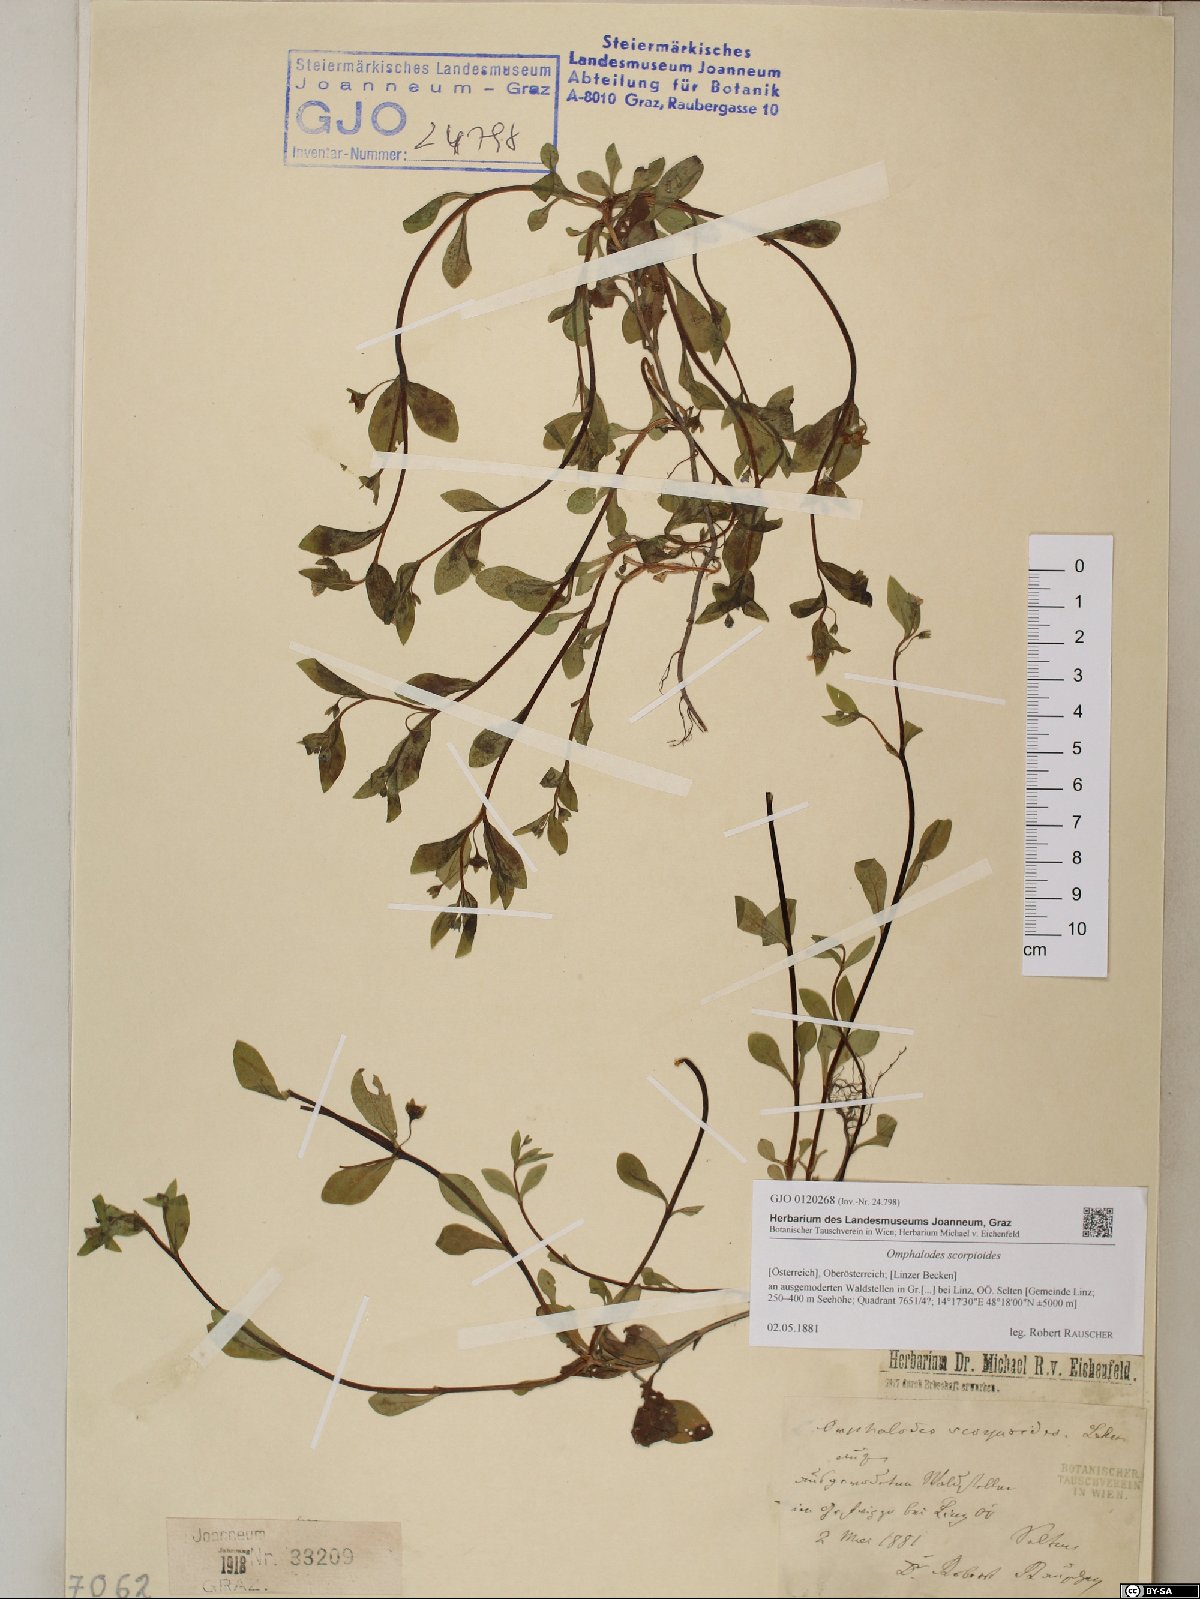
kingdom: Plantae
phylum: Tracheophyta
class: Magnoliopsida
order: Boraginales
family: Boraginaceae
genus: Memoremea
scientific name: Memoremea scorpioides
